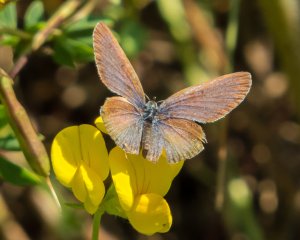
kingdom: Animalia
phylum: Arthropoda
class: Insecta
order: Lepidoptera
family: Lycaenidae
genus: Elkalyce
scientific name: Elkalyce comyntas
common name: Eastern Tailed-Blue
